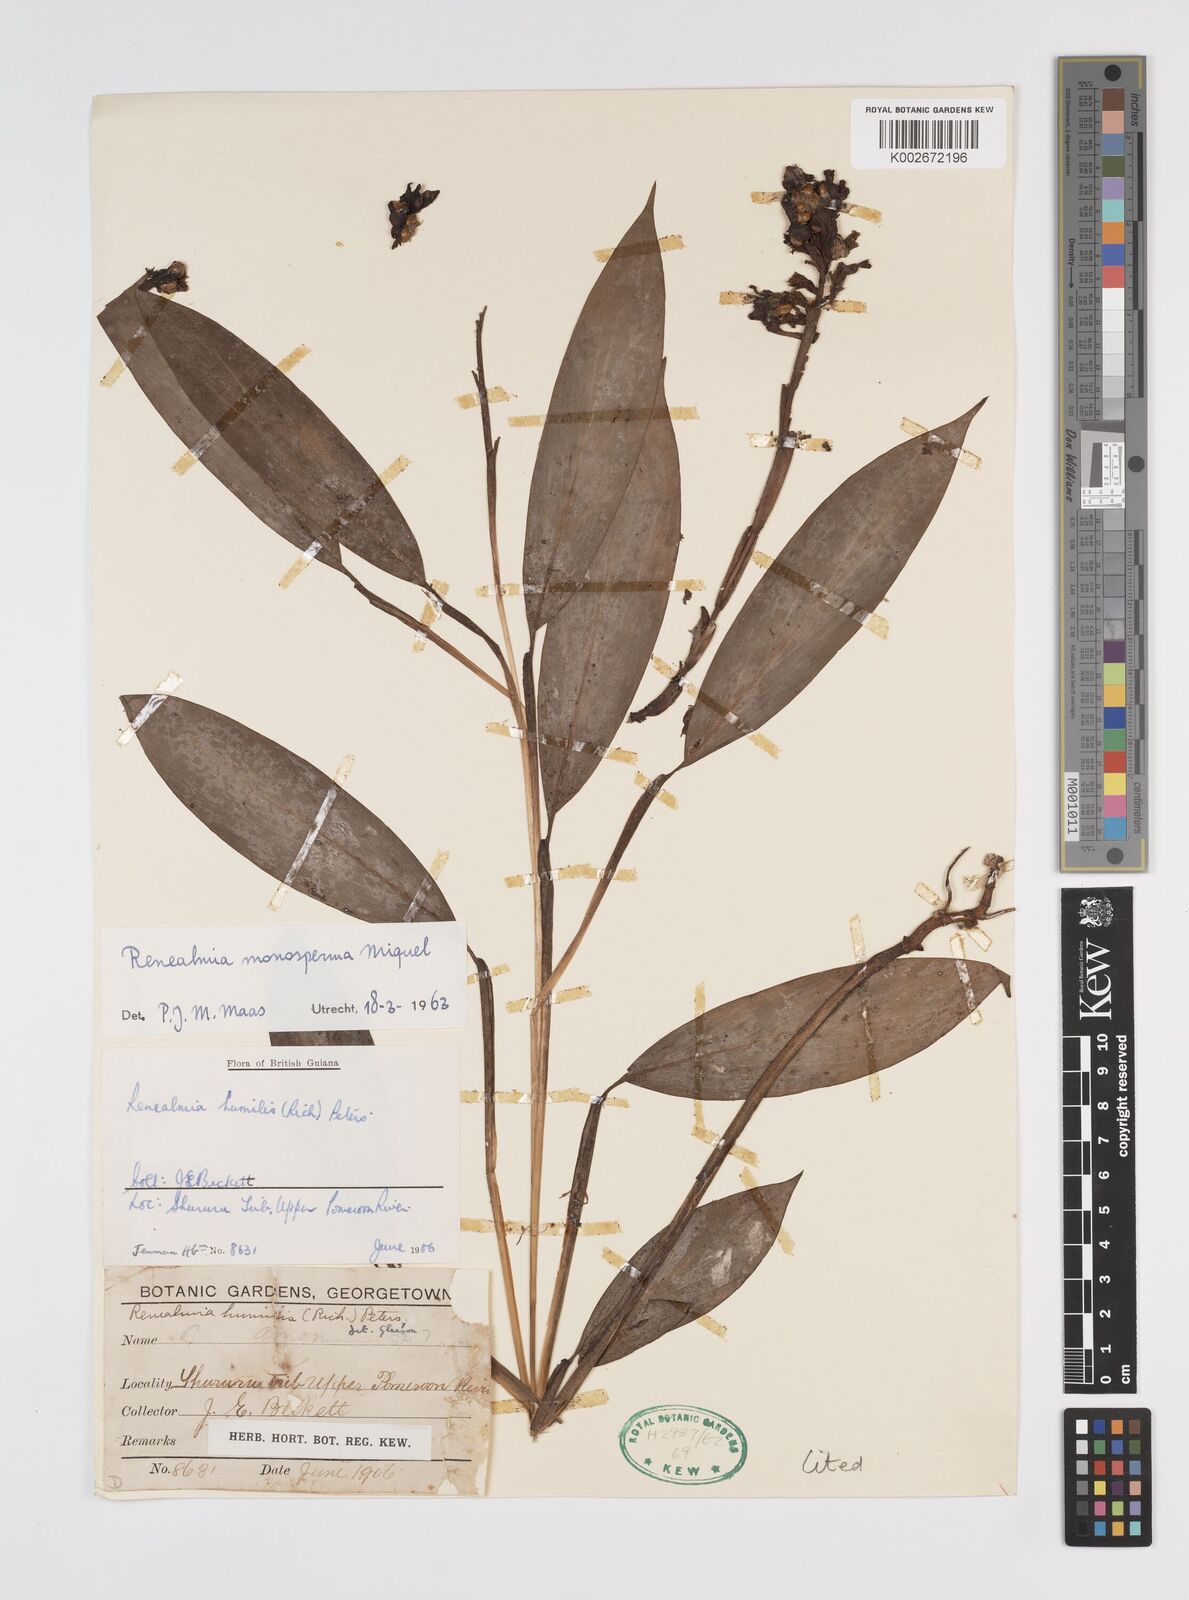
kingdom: Plantae
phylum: Tracheophyta
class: Liliopsida
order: Zingiberales
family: Zingiberaceae
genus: Renealmia
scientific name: Renealmia monosperma
